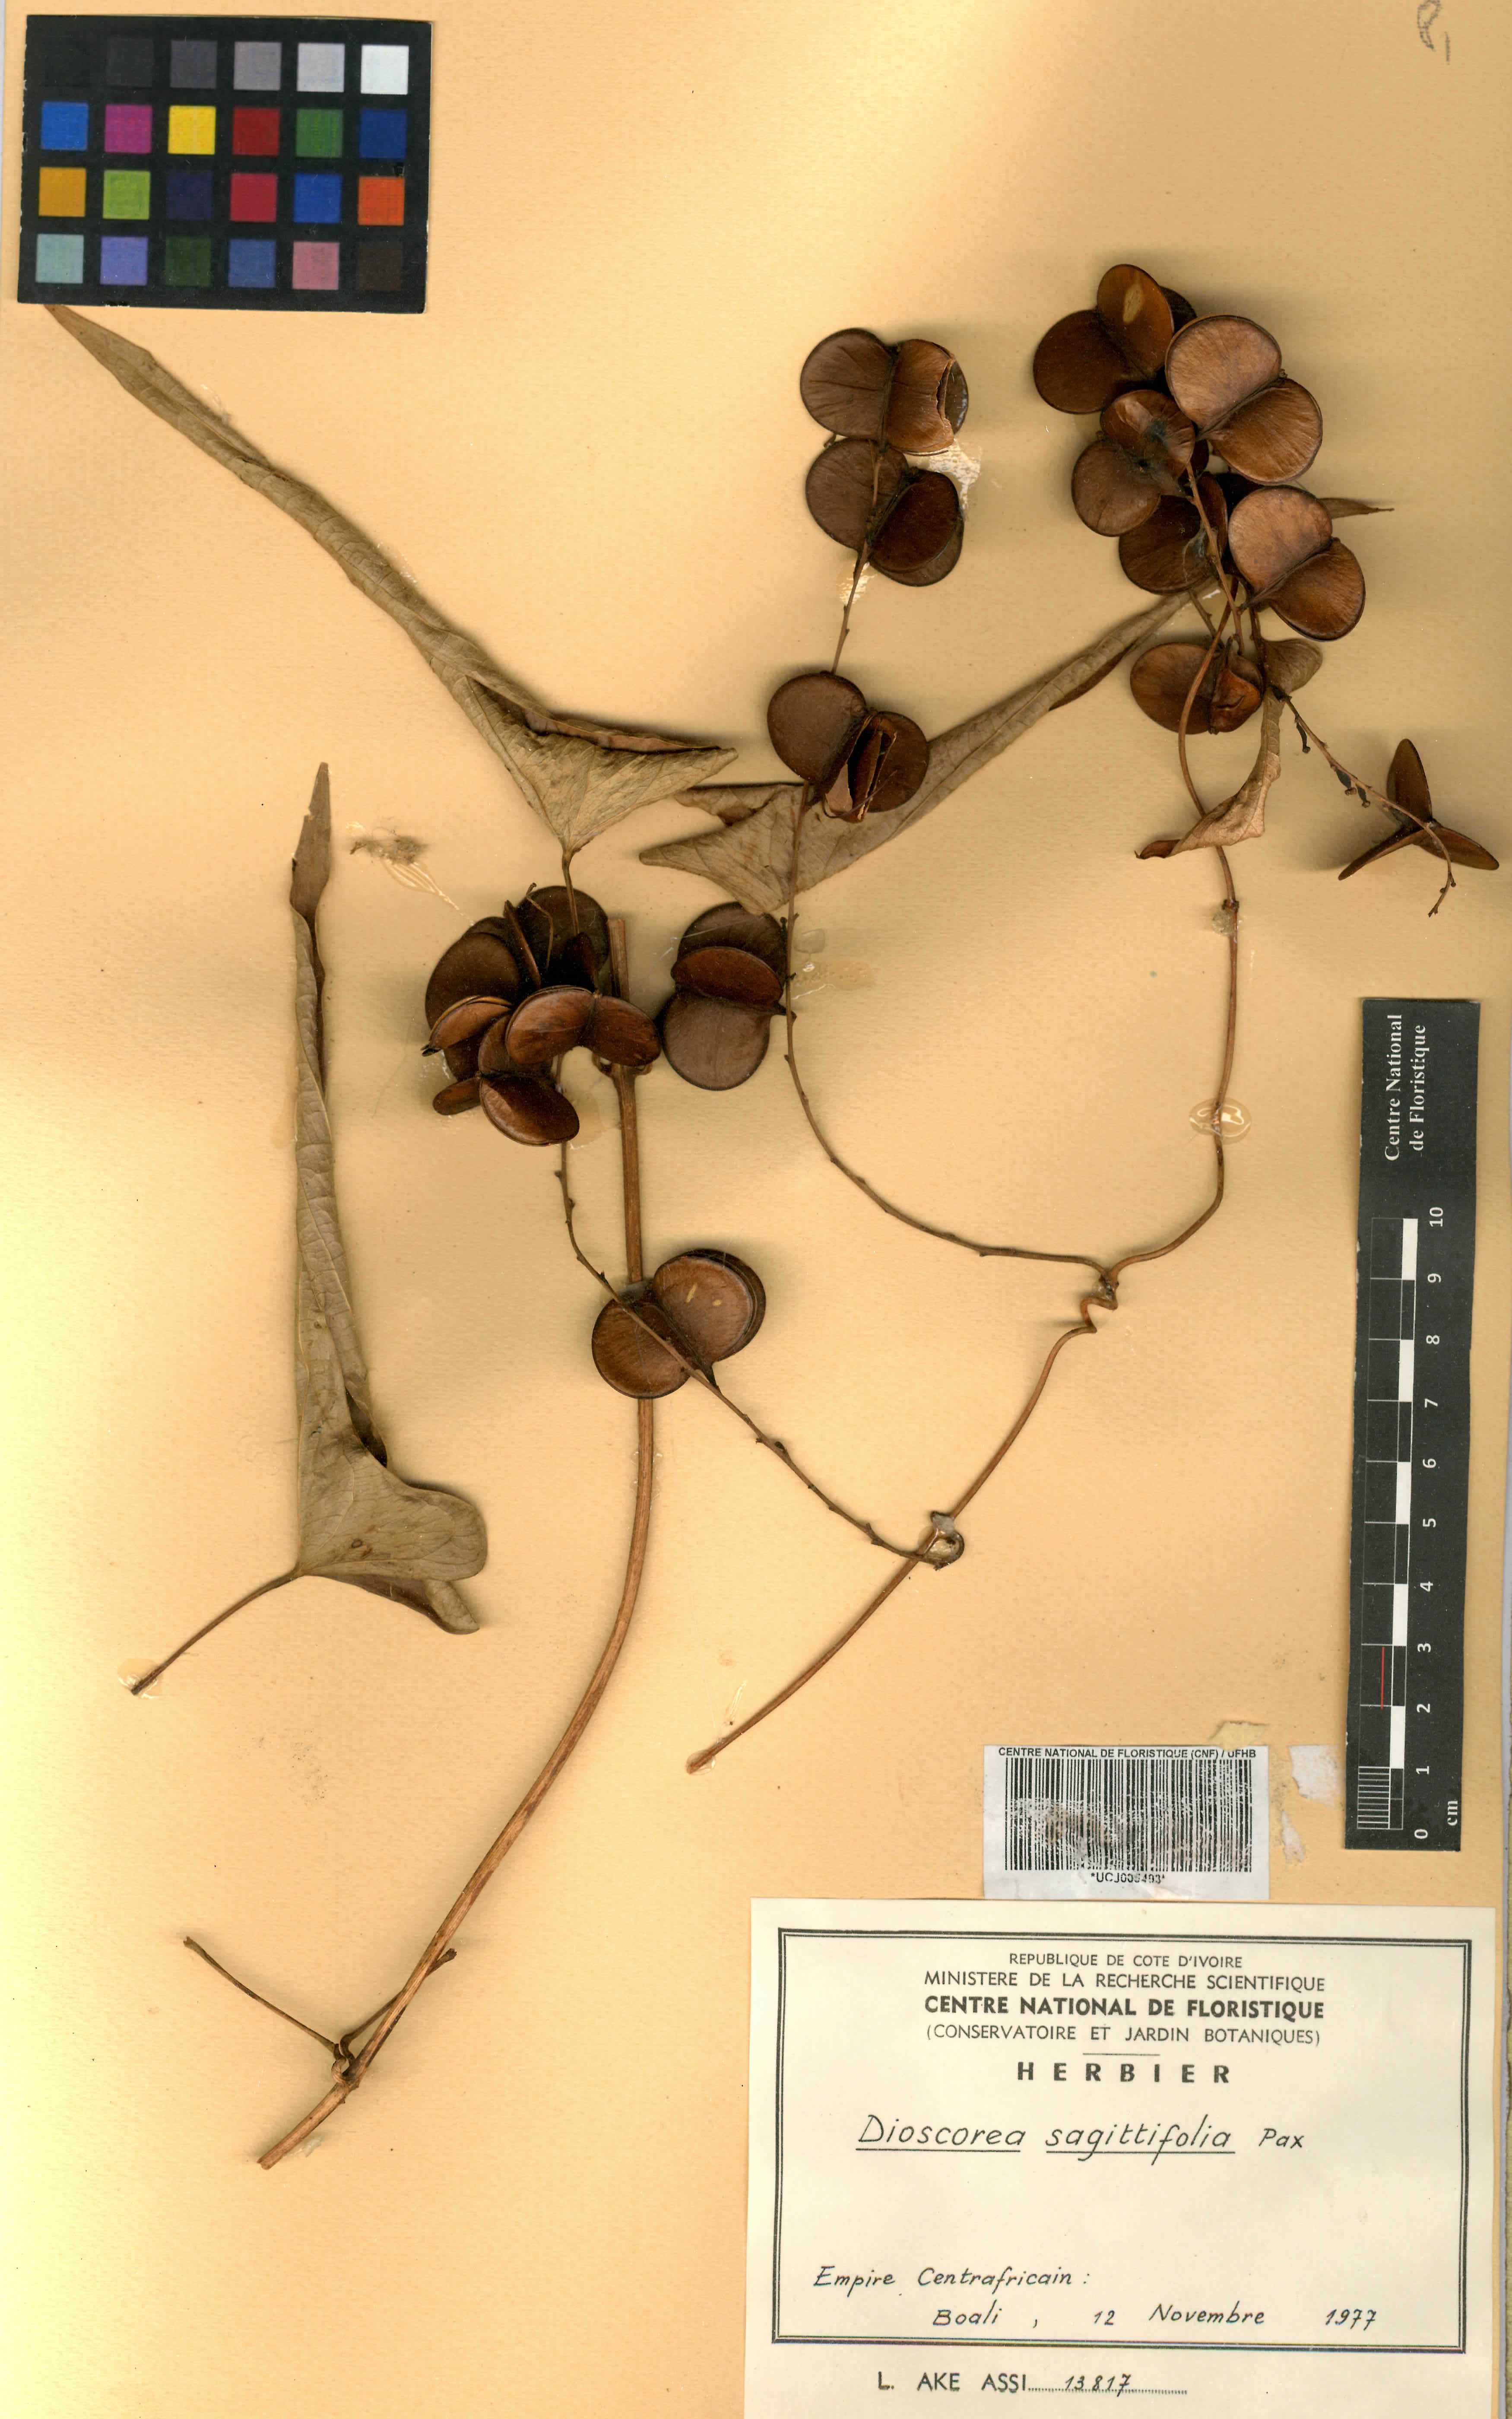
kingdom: Plantae
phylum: Tracheophyta
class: Liliopsida
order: Dioscoreales
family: Dioscoreaceae
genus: Dioscorea
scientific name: Dioscorea sagittifolia
